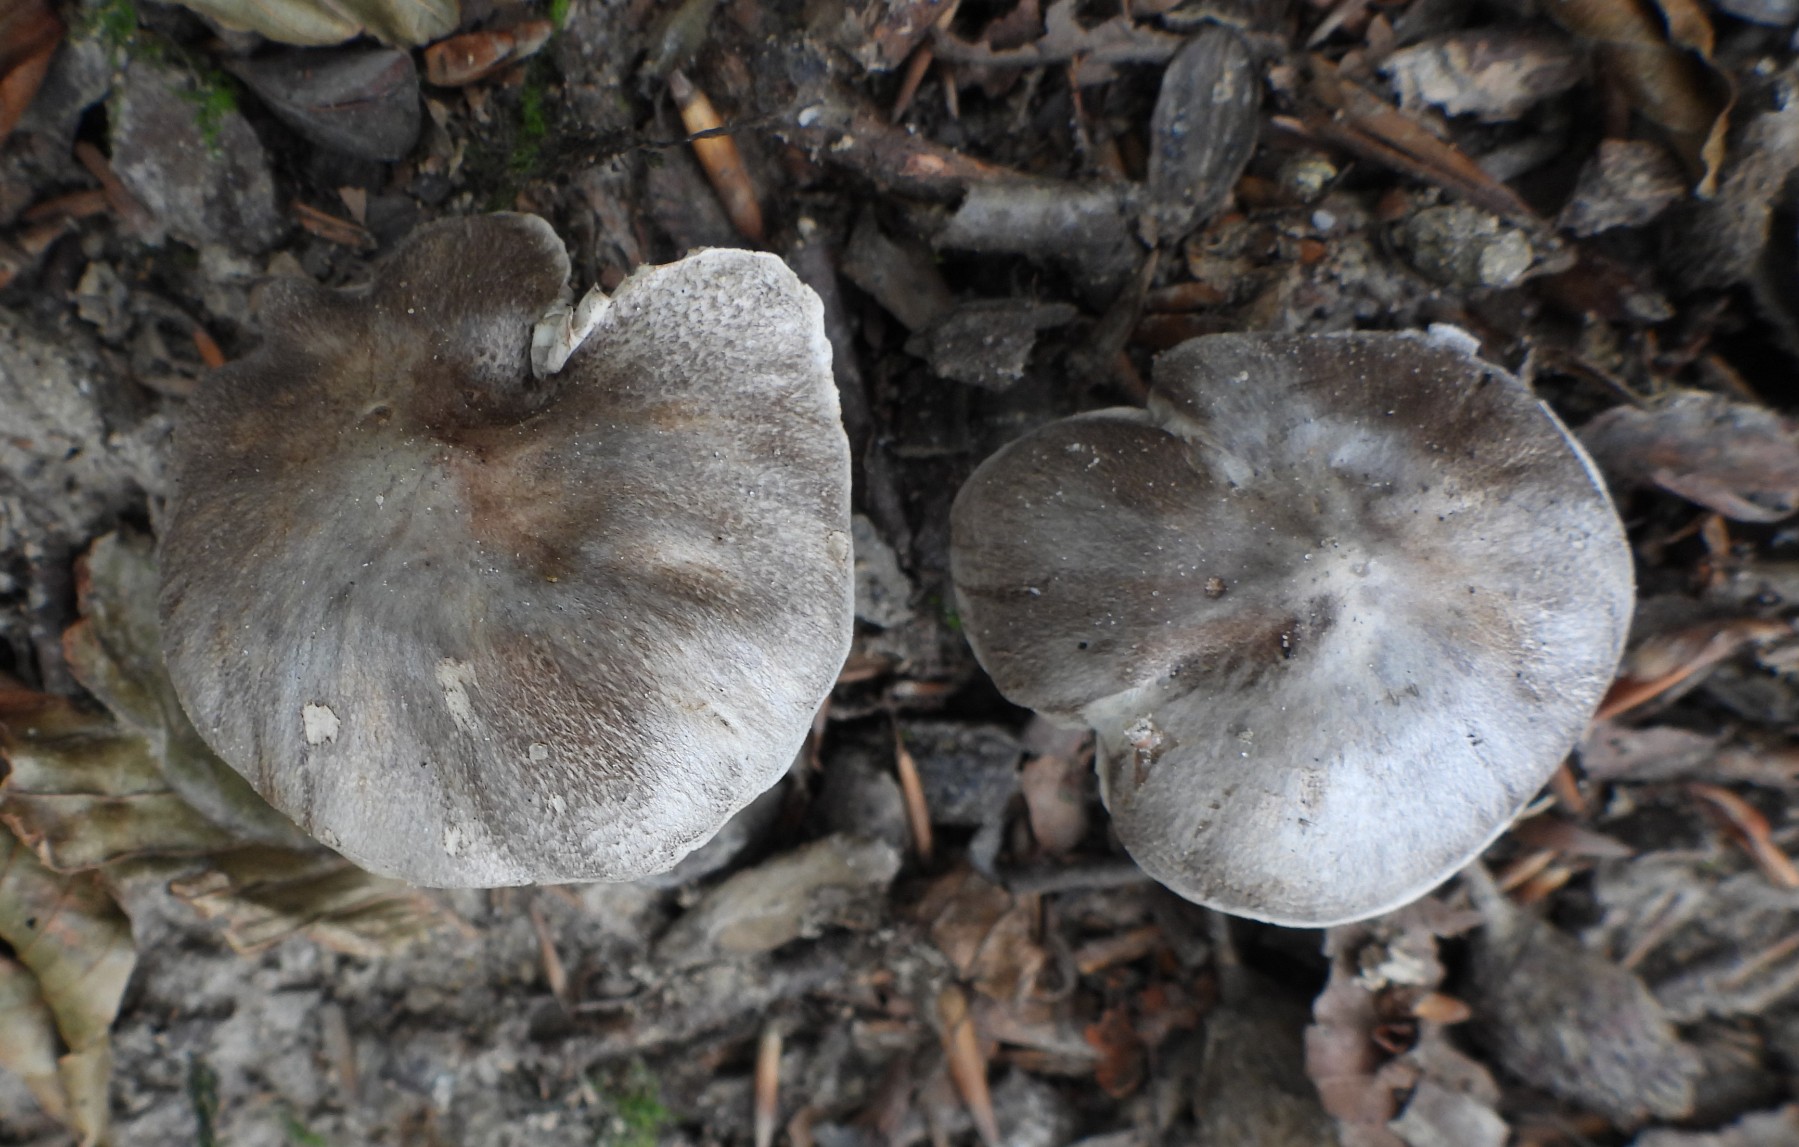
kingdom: Fungi
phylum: Basidiomycota
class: Agaricomycetes
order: Agaricales
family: Tricholomataceae
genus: Tricholoma
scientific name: Tricholoma sciodes
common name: stribet ridderhat
